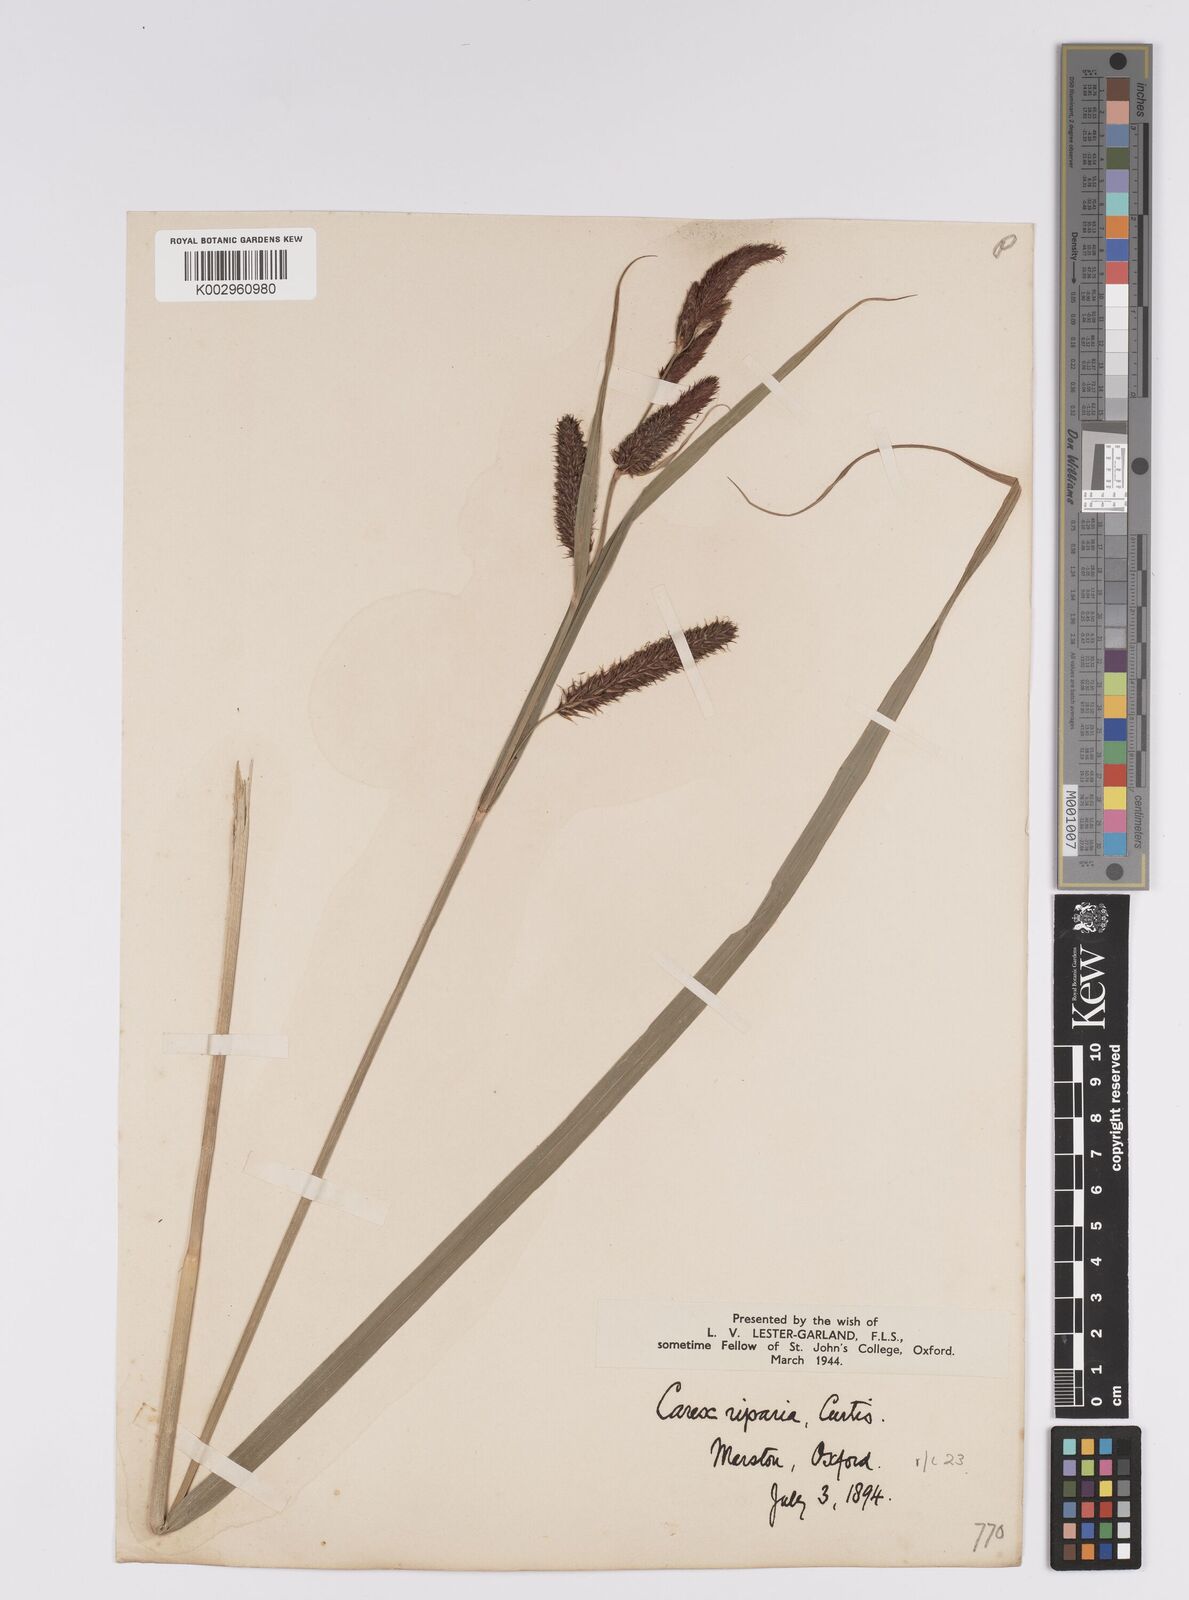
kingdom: Plantae
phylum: Tracheophyta
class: Liliopsida
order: Poales
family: Cyperaceae
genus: Carex
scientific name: Carex riparia
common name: Greater pond-sedge
